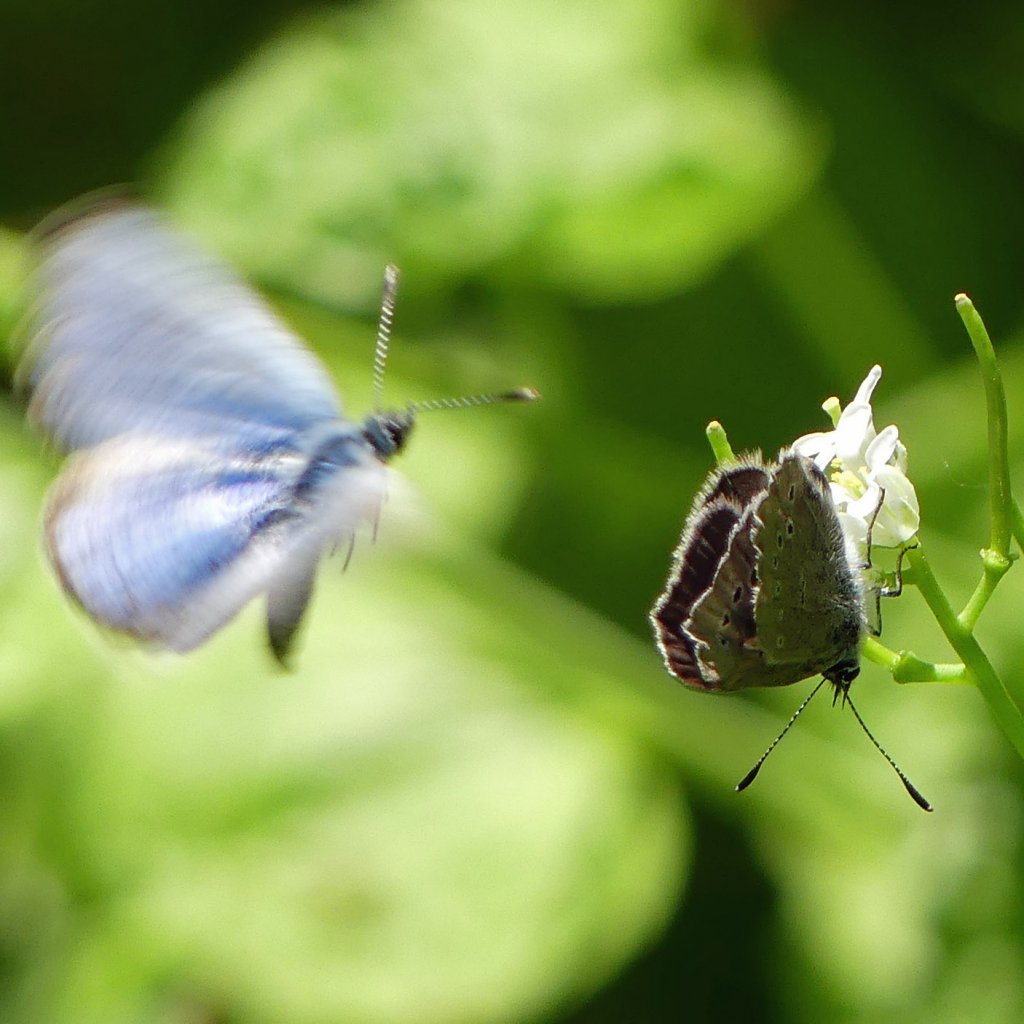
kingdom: Animalia
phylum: Arthropoda
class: Insecta
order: Lepidoptera
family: Lycaenidae
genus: Glaucopsyche
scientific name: Glaucopsyche lygdamus
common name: Silvery Blue
